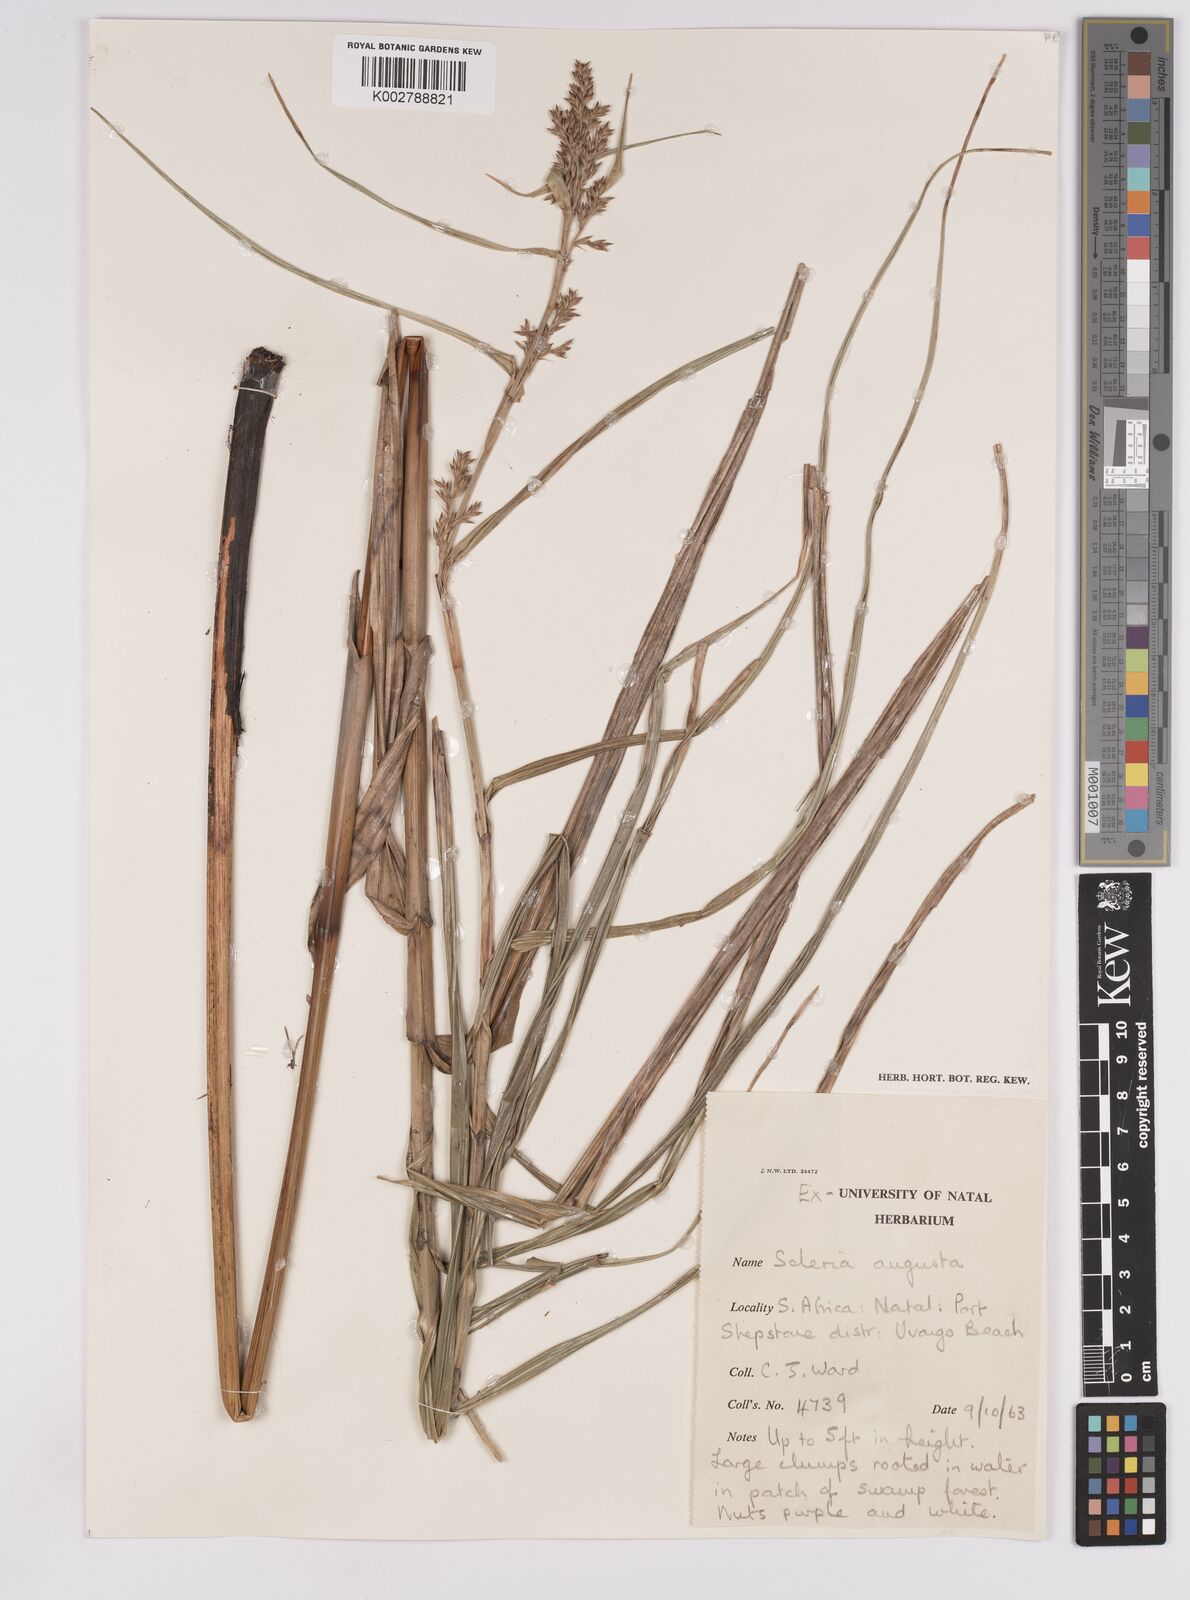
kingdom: Plantae
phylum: Tracheophyta
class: Liliopsida
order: Poales
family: Cyperaceae
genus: Scleria
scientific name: Scleria angusta
